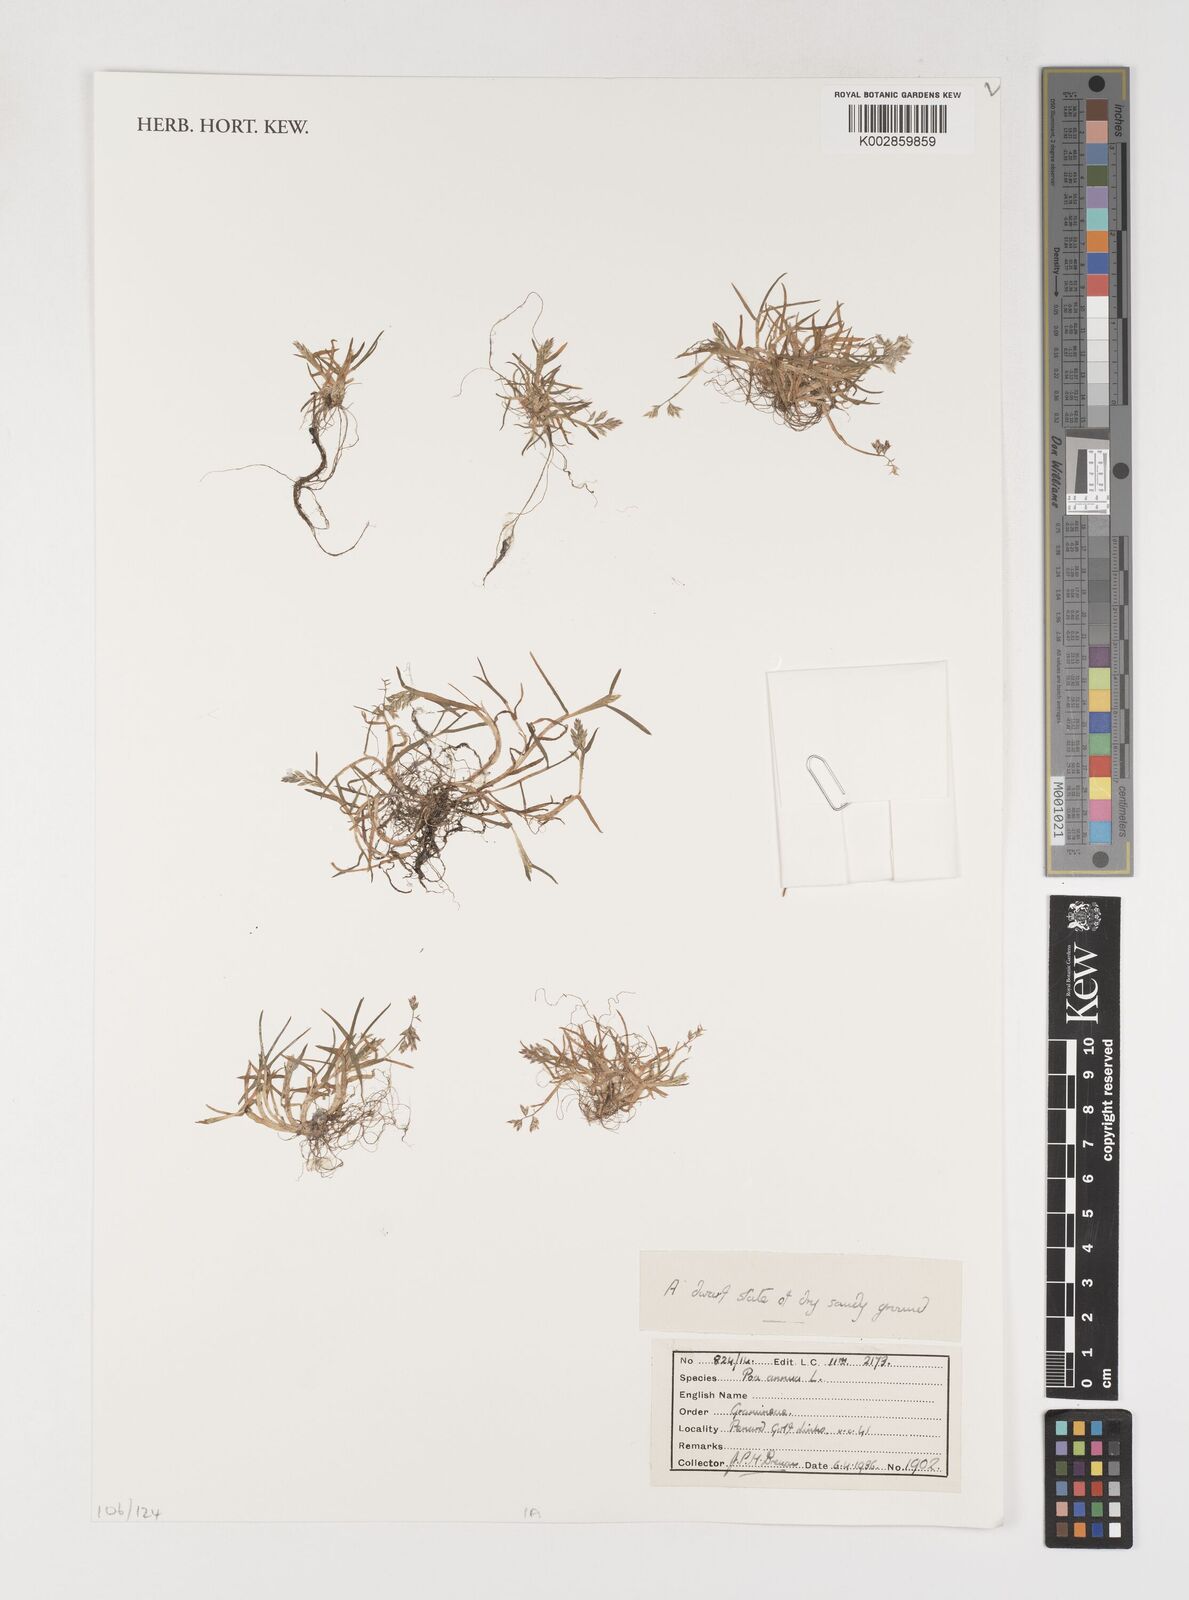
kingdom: Plantae
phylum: Tracheophyta
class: Liliopsida
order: Poales
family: Poaceae
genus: Poa
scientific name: Poa annua
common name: Annual bluegrass
